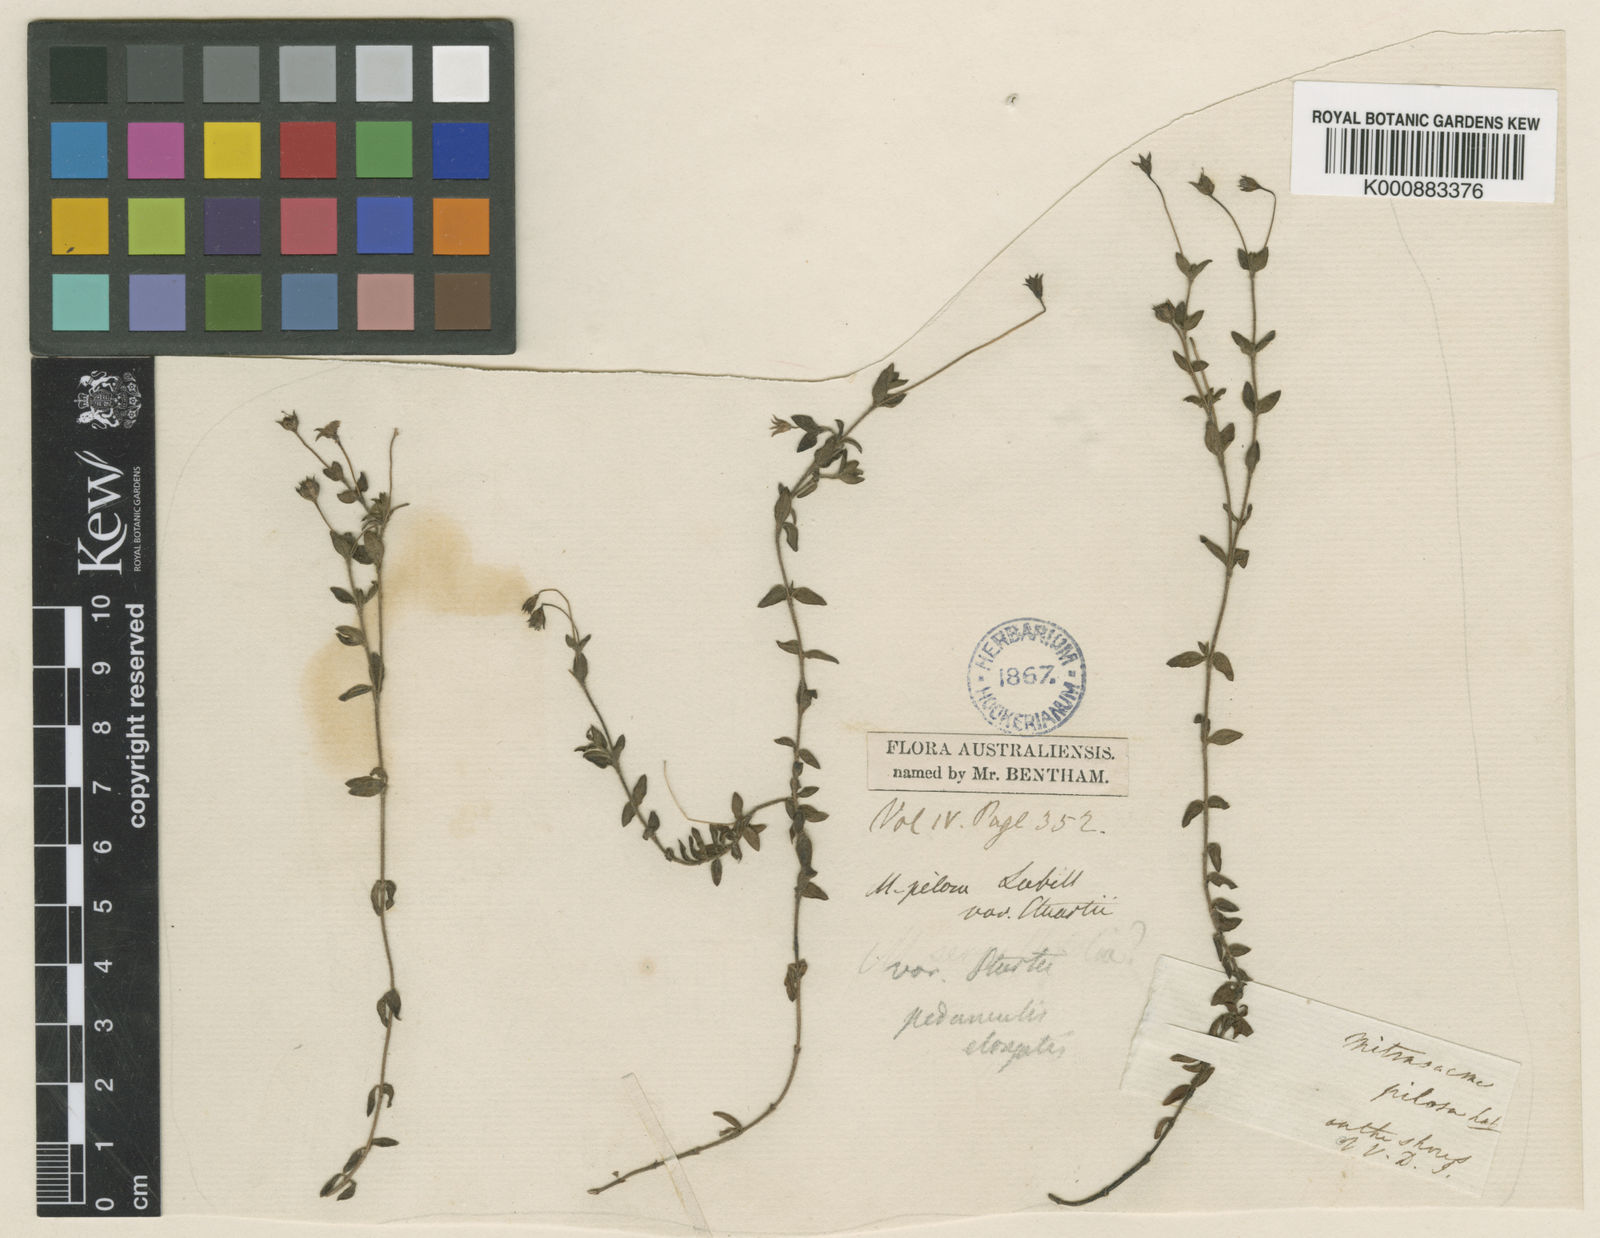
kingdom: Plantae
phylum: Tracheophyta
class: Magnoliopsida
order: Gentianales
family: Loganiaceae
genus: Mitrasacme
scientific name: Mitrasacme pilosa
